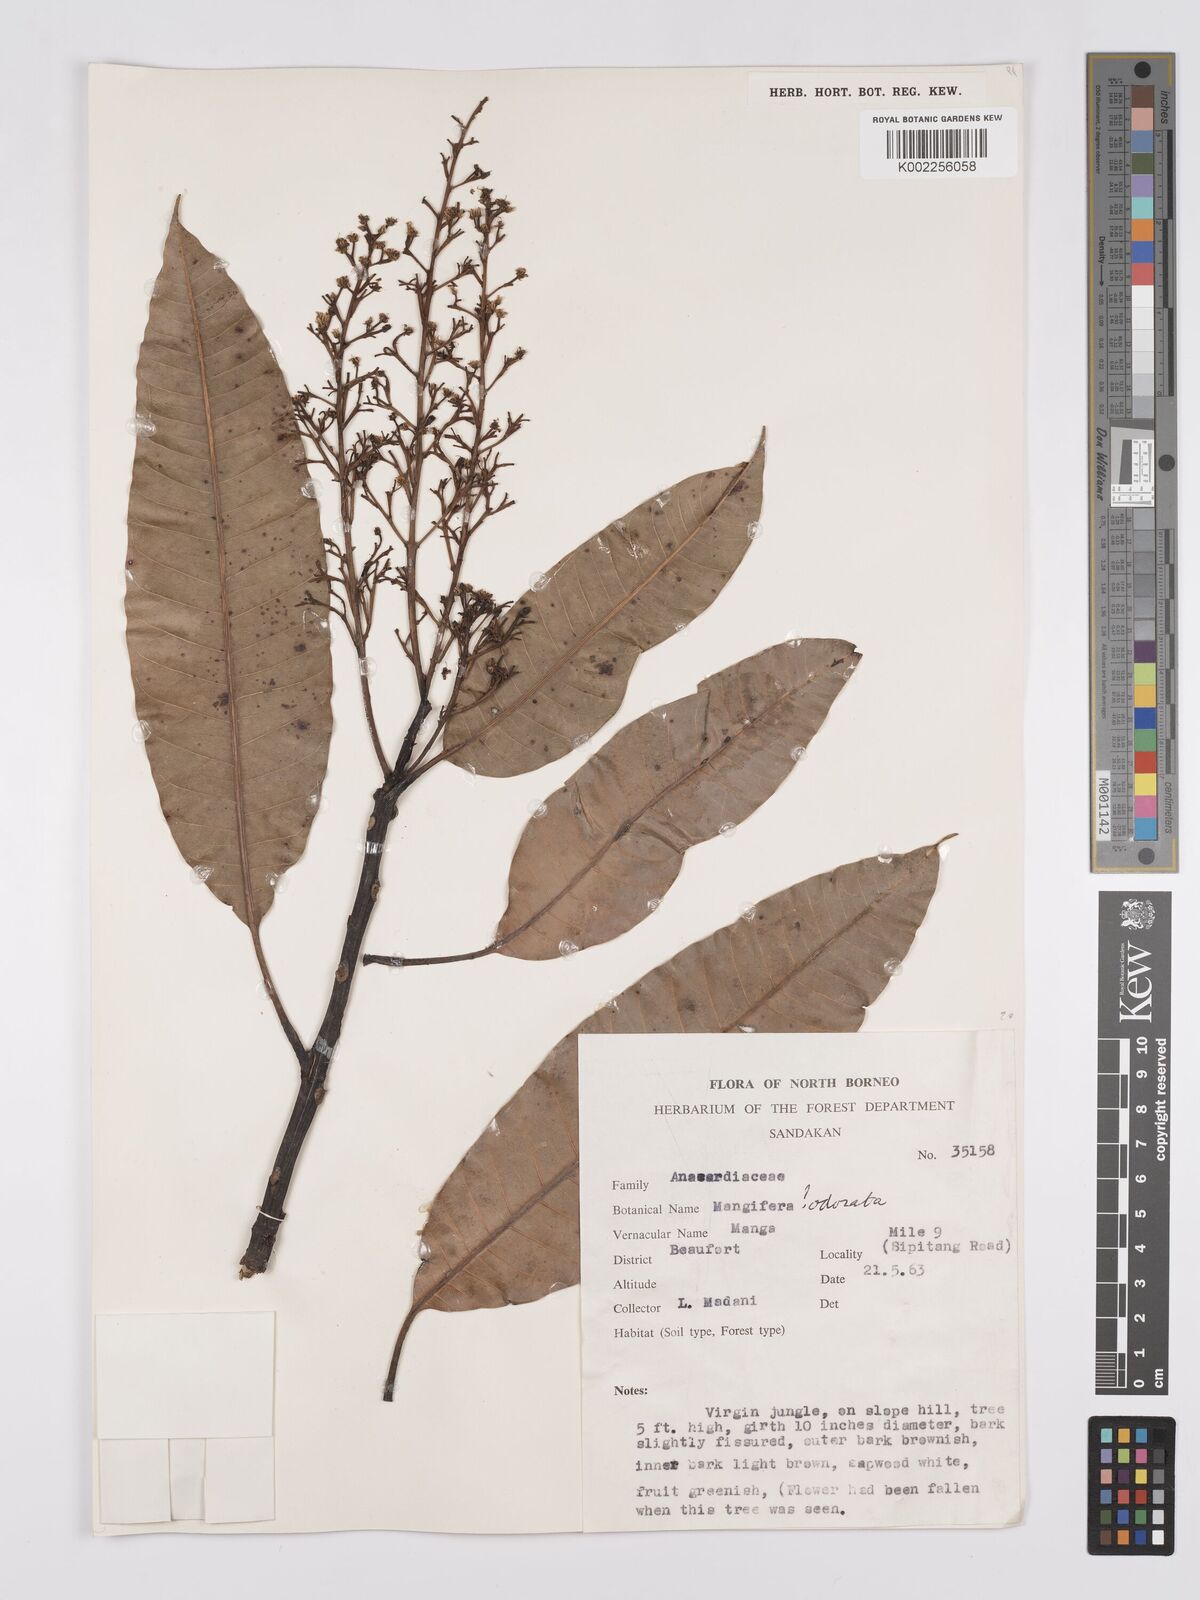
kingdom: Plantae
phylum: Tracheophyta
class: Magnoliopsida
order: Sapindales
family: Anacardiaceae
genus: Mangifera
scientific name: Mangifera odorata
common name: Saipan mango
